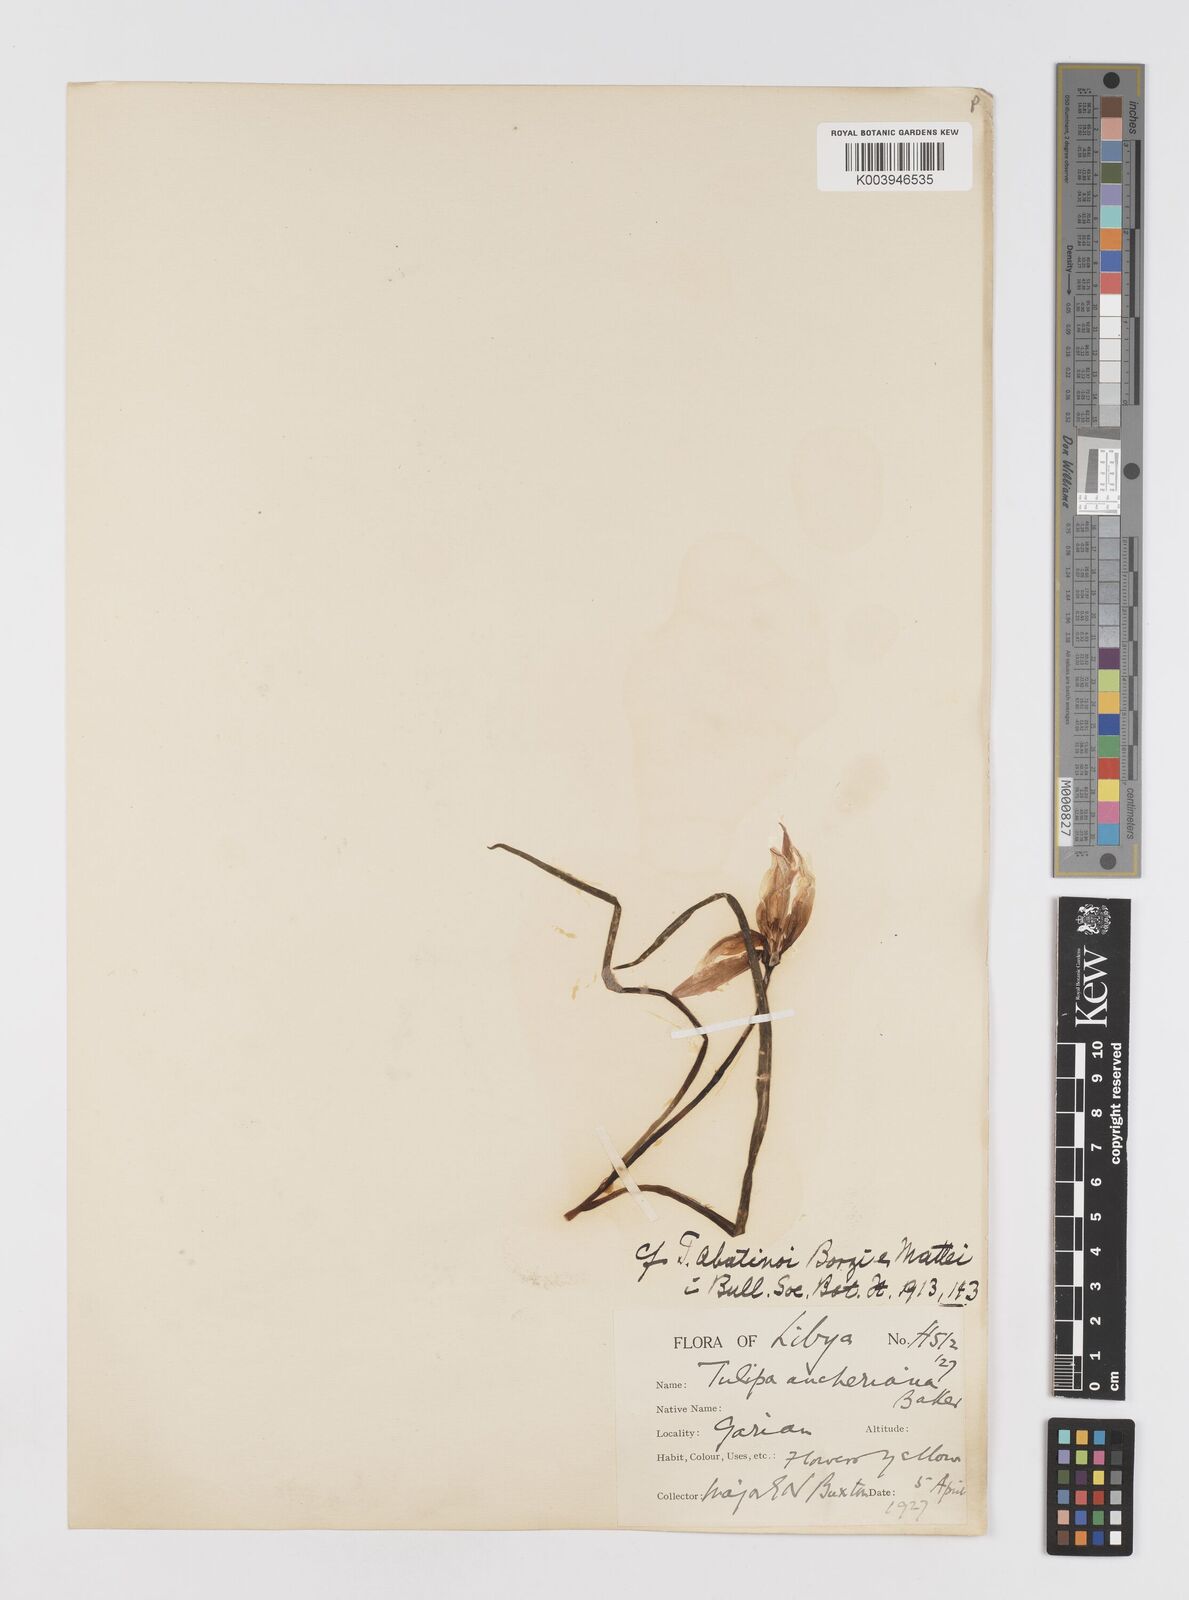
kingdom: Plantae
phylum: Tracheophyta
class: Liliopsida
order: Liliales
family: Liliaceae
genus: Tulipa
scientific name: Tulipa sylvestris
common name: Wild tulip
